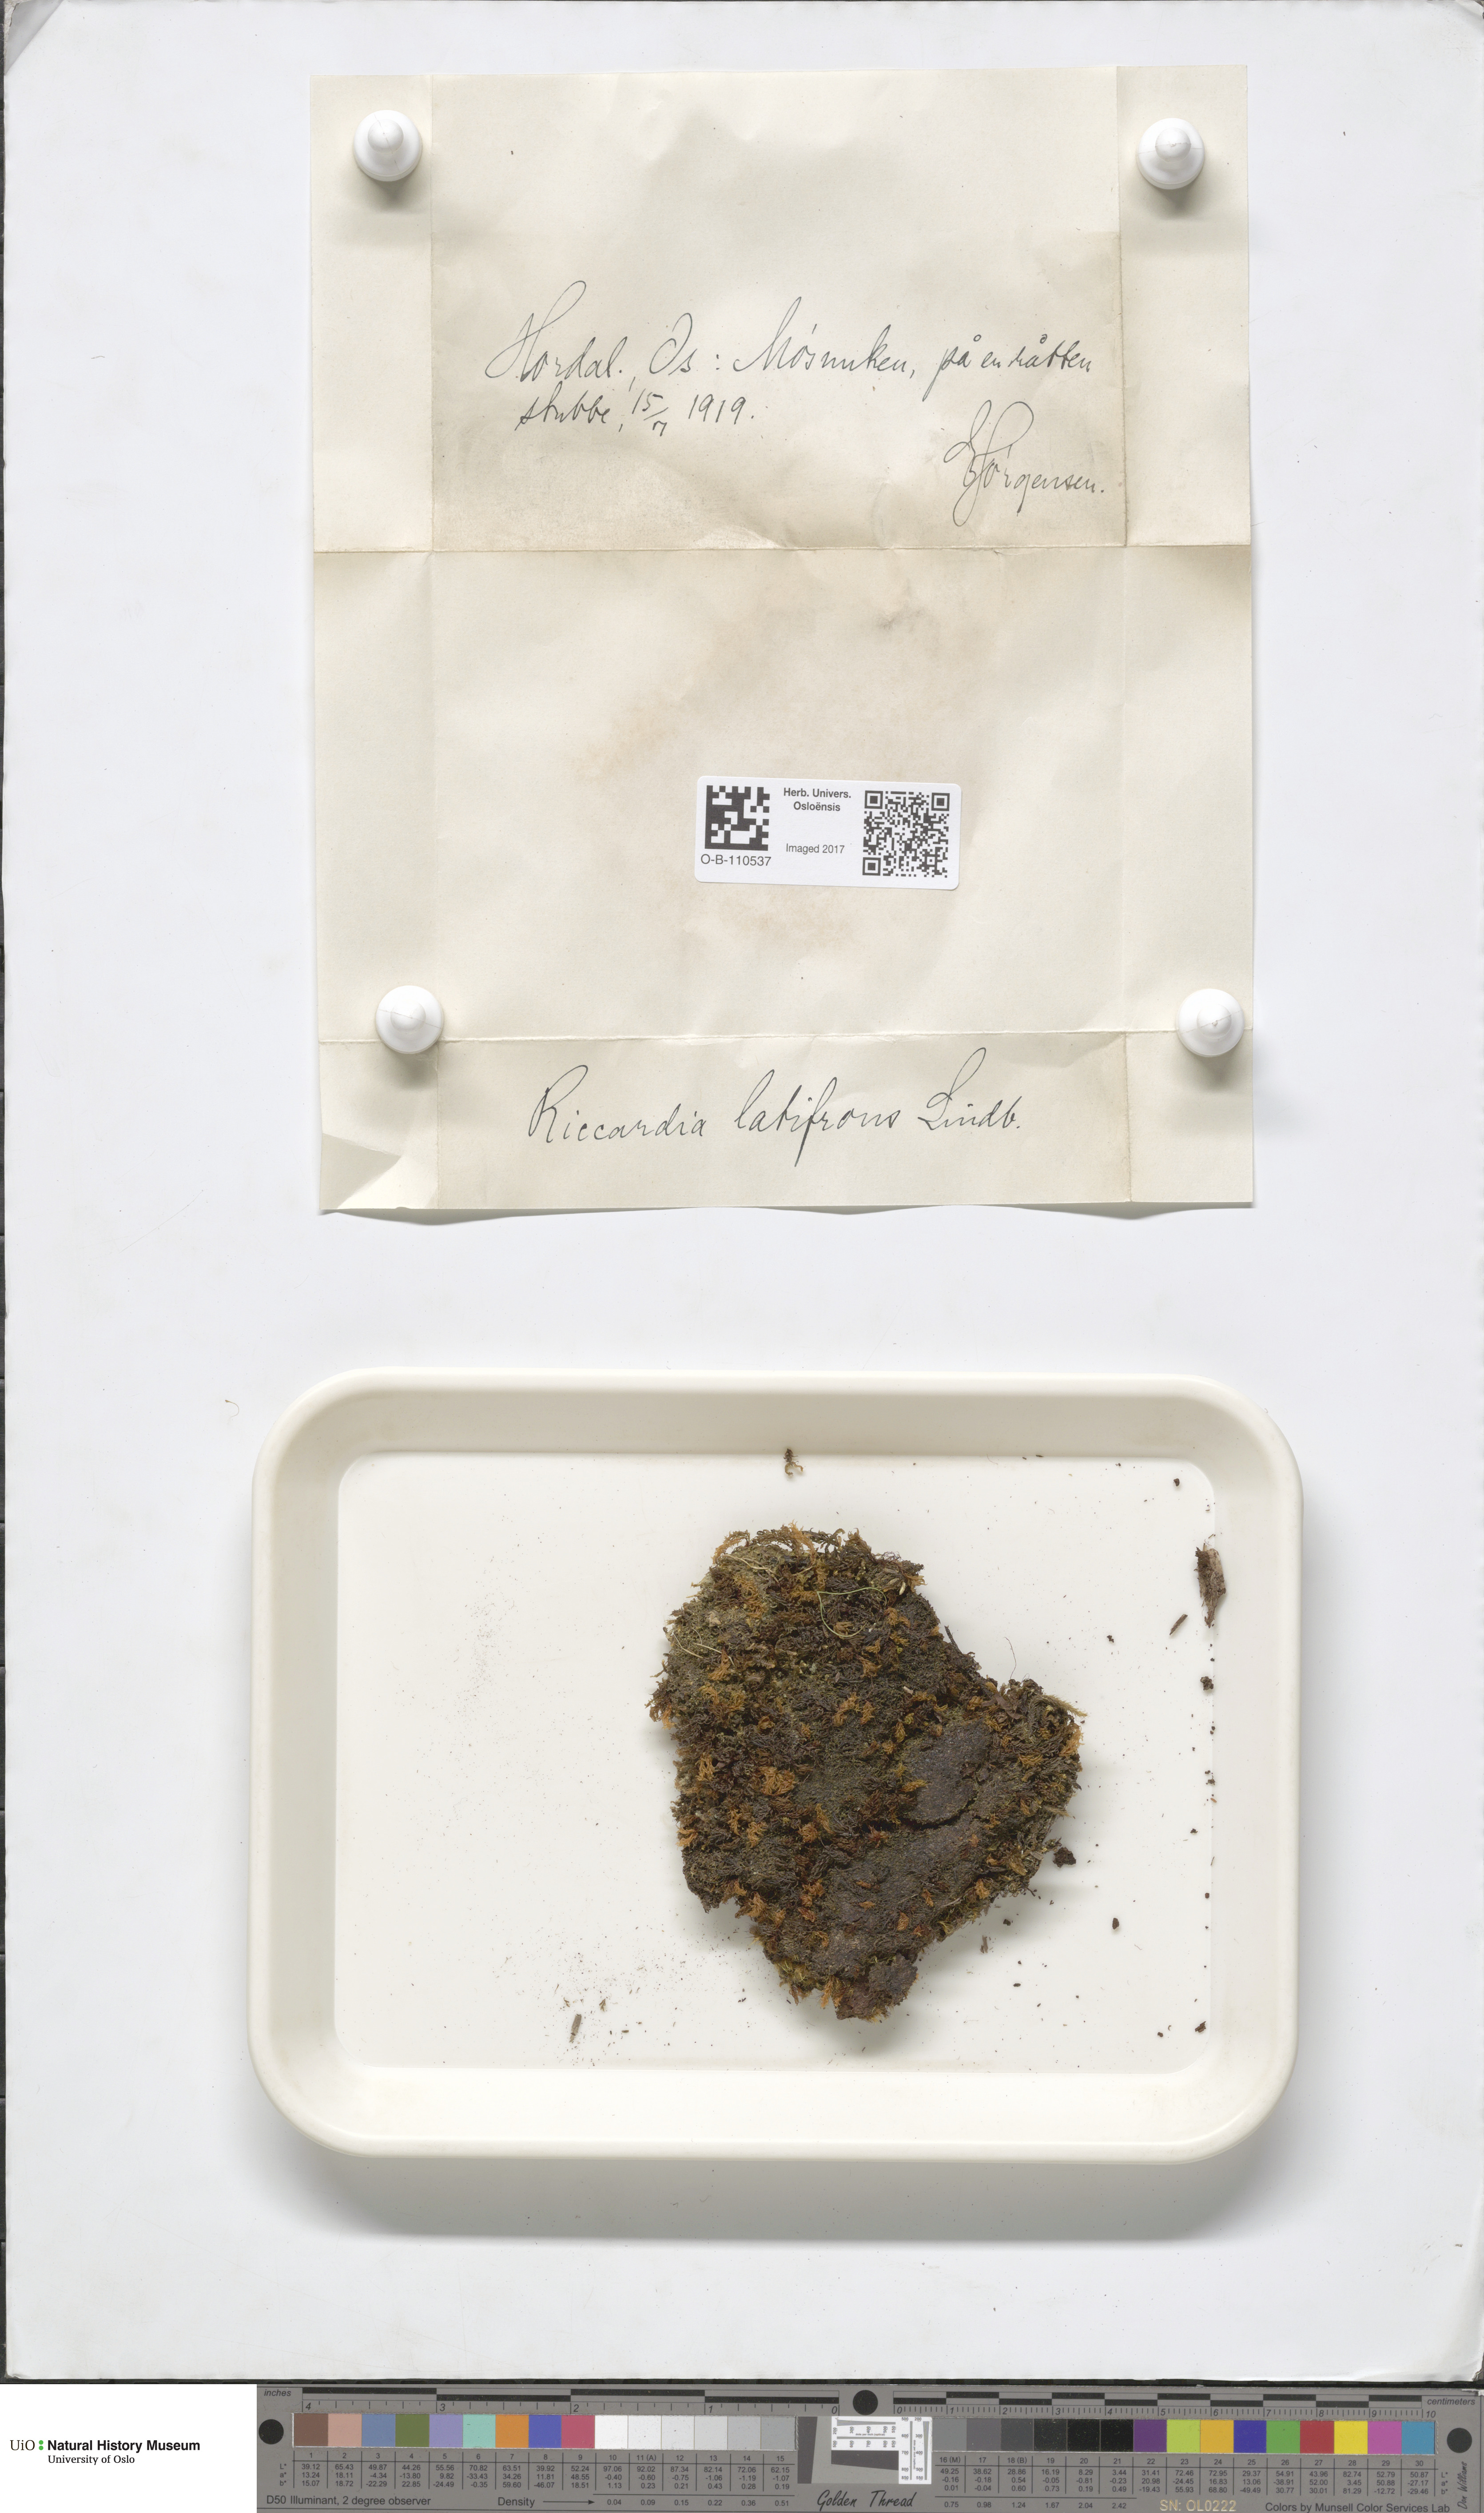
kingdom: Plantae
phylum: Marchantiophyta
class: Jungermanniopsida
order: Metzgeriales
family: Aneuraceae
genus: Riccardia
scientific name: Riccardia latifrons
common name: Bog germanderwort
